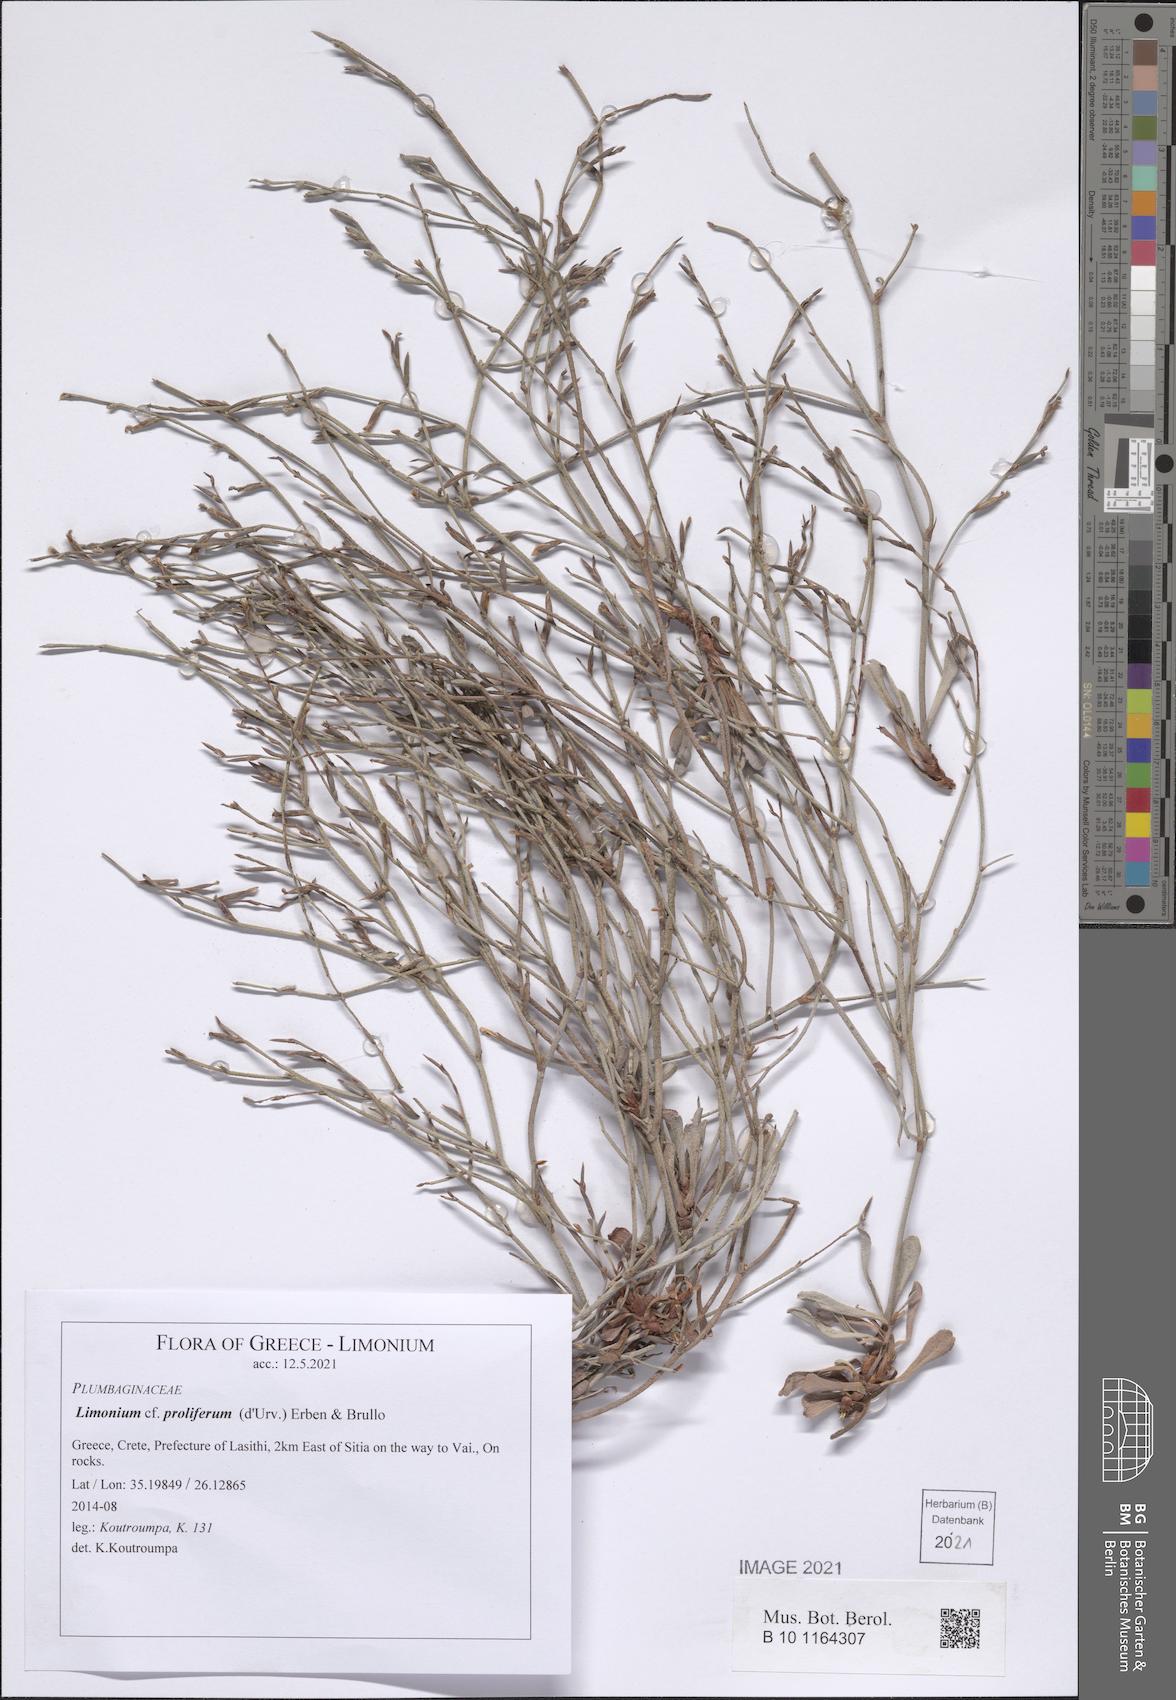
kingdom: Plantae
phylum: Tracheophyta
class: Magnoliopsida
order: Caryophyllales
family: Plumbaginaceae
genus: Limonium
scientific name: Limonium proliferum
